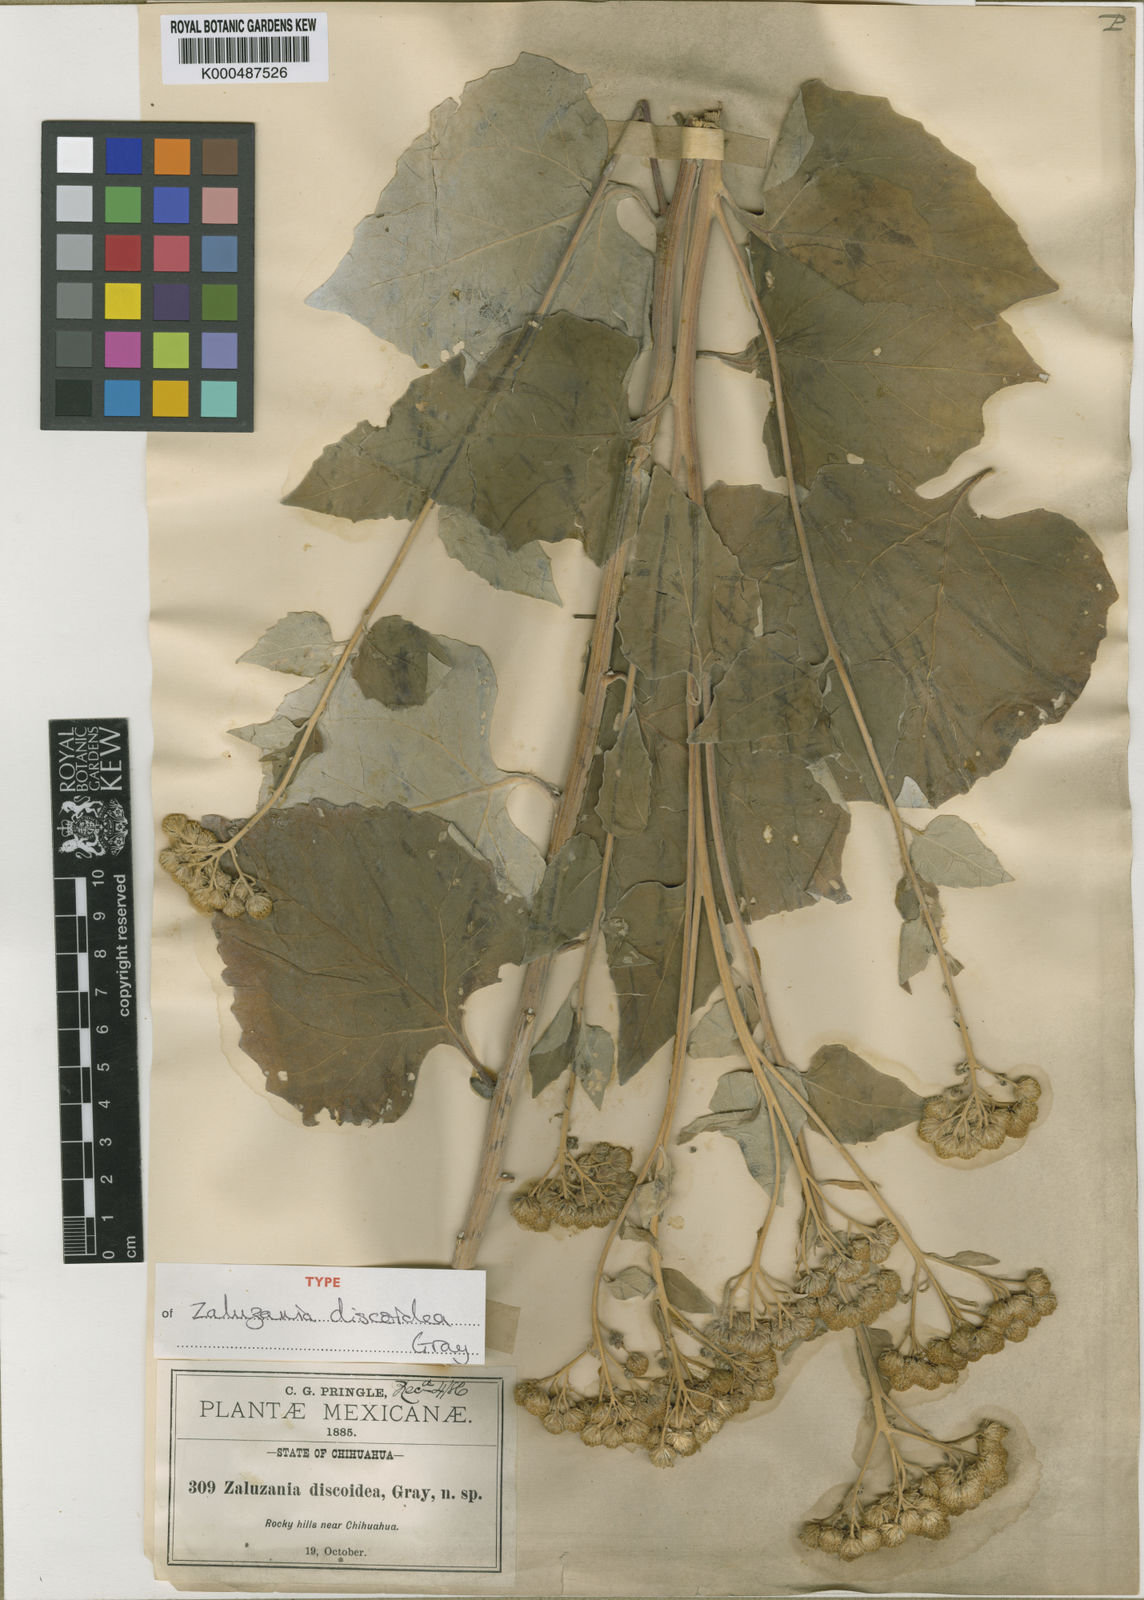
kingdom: Plantae
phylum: Tracheophyta
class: Magnoliopsida
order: Asterales
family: Asteraceae
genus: Zaluzania
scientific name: Zaluzania discoidea
